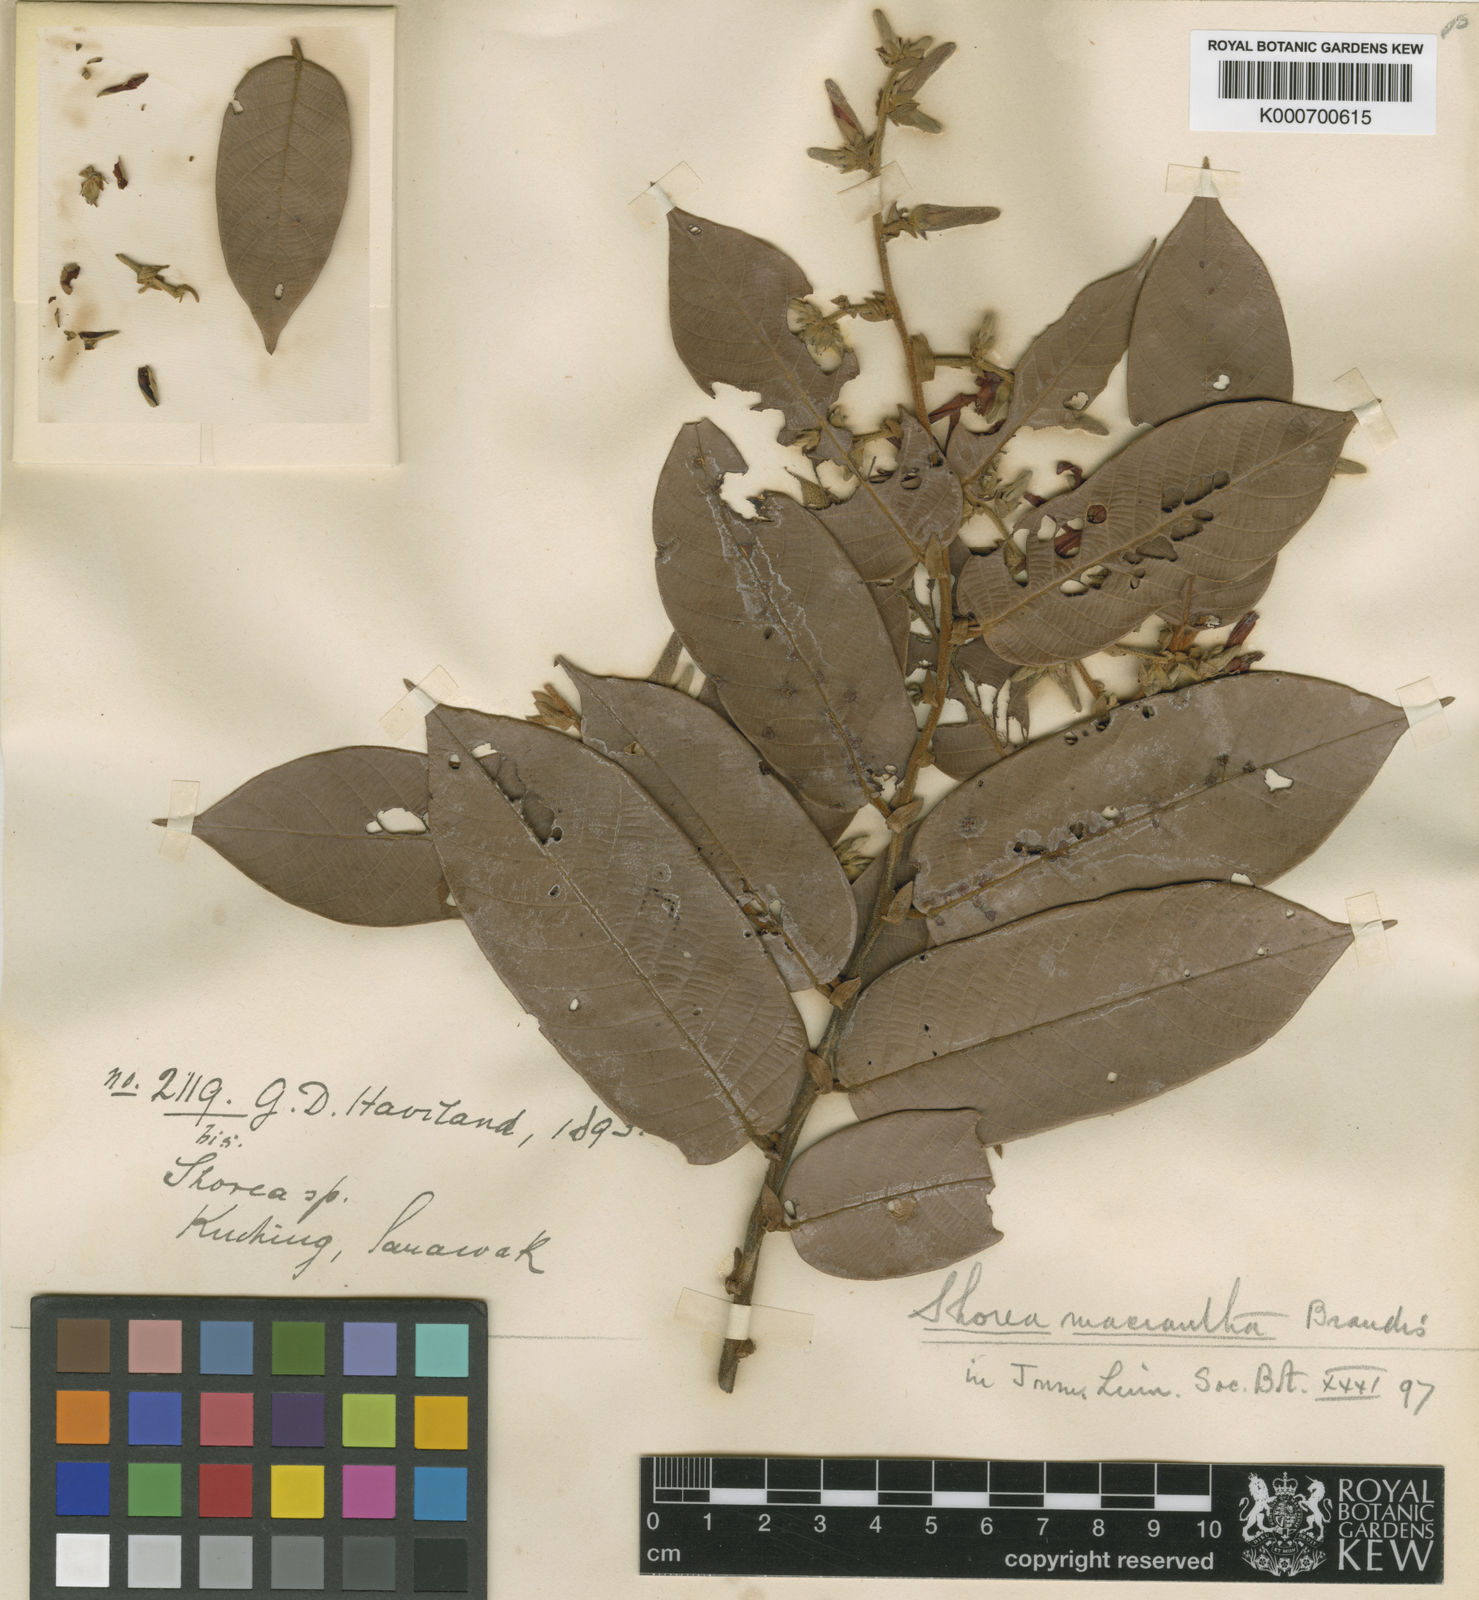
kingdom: Plantae
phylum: Tracheophyta
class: Magnoliopsida
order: Malvales
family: Dipterocarpaceae
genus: Shorea
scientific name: Shorea macrantha
